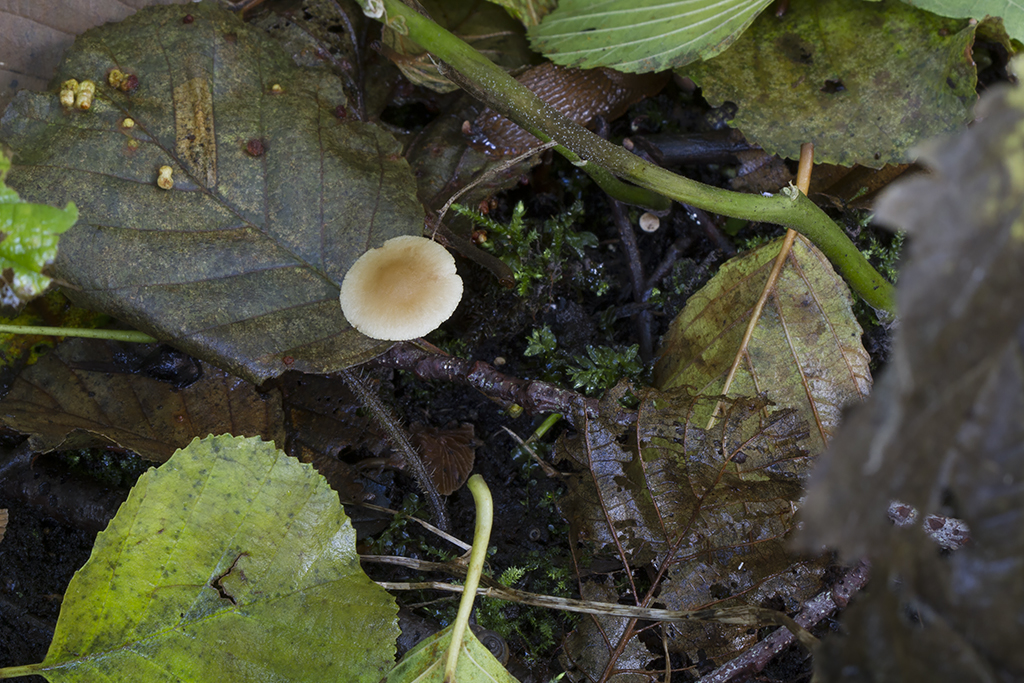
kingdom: Fungi
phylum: Basidiomycota
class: Agaricomycetes
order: Agaricales
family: Hymenogastraceae
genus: Naucoria
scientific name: Naucoria escharioides
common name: lys elle-knaphat
